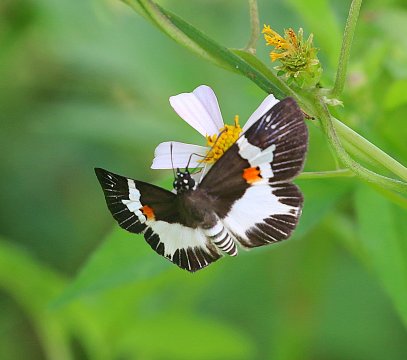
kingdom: Animalia
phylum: Arthropoda
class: Insecta
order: Lepidoptera
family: Hesperiidae
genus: Atarnes
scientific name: Atarnes sallei
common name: Orange-spotted Skipper
